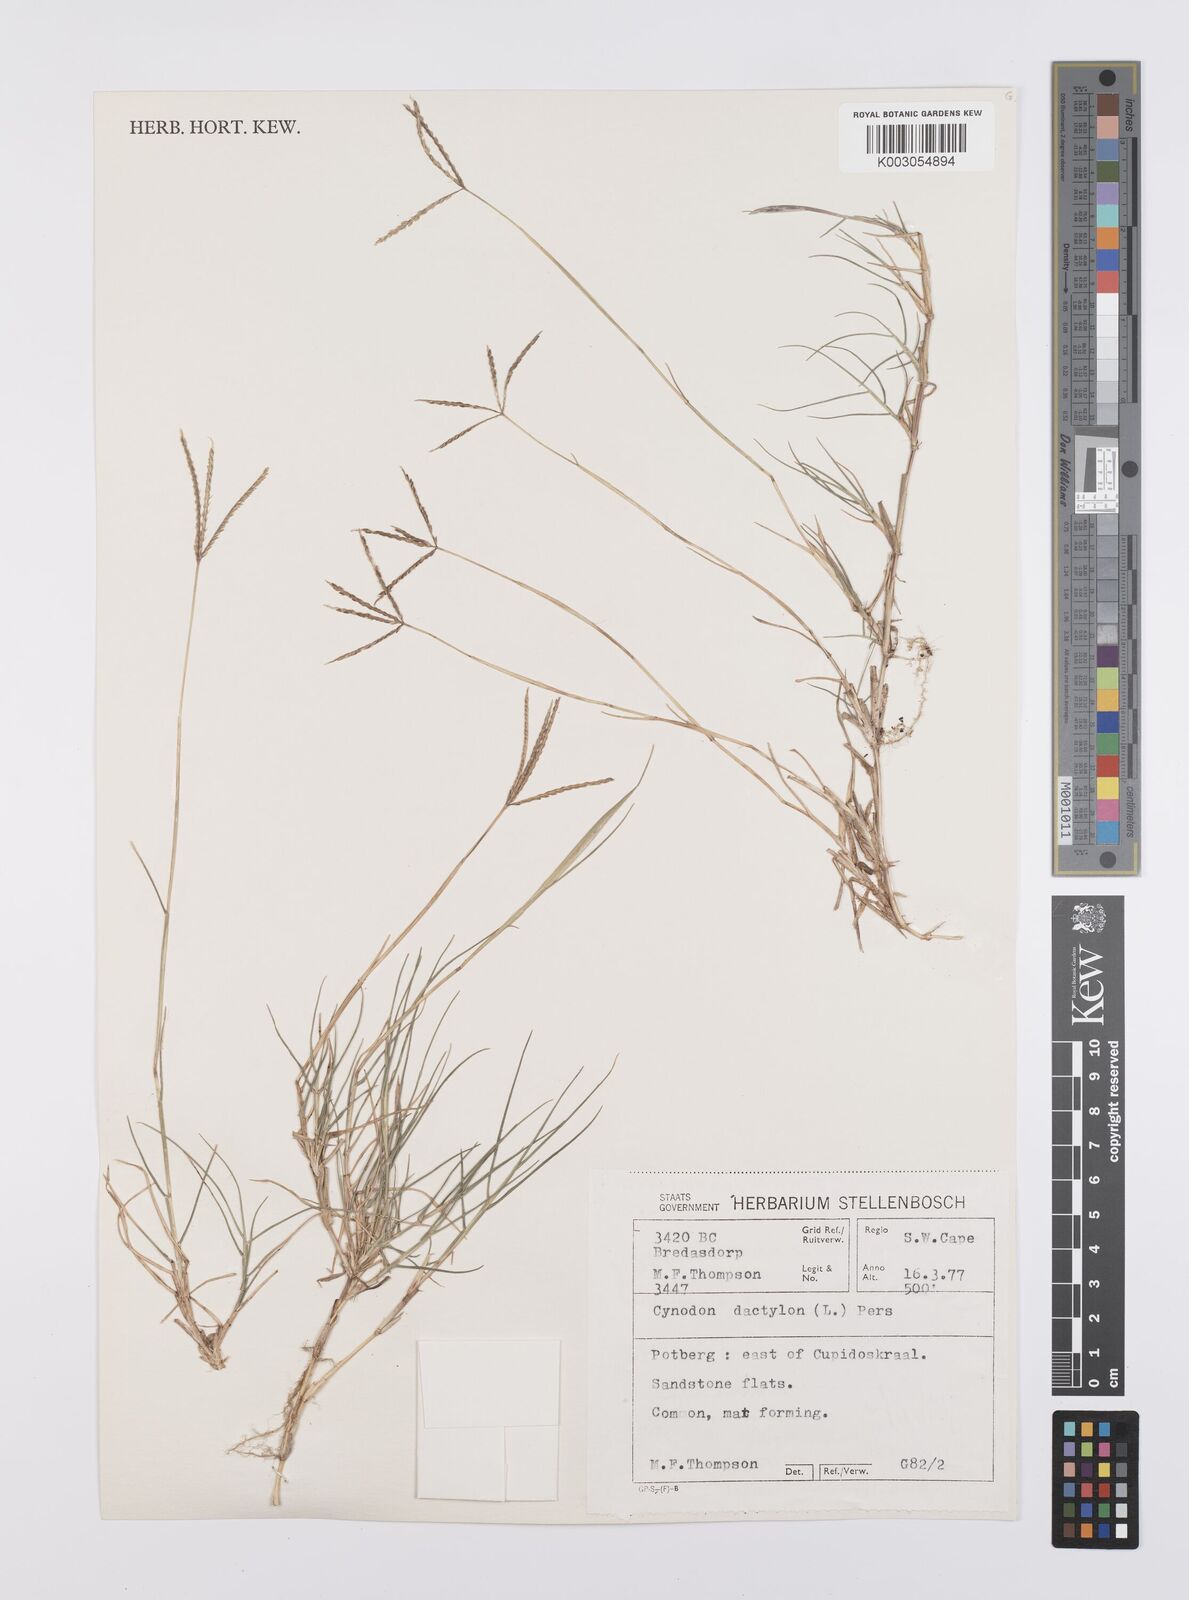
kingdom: Plantae
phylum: Tracheophyta
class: Liliopsida
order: Poales
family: Poaceae
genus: Cynodon
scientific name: Cynodon dactylon
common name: Bermuda grass
